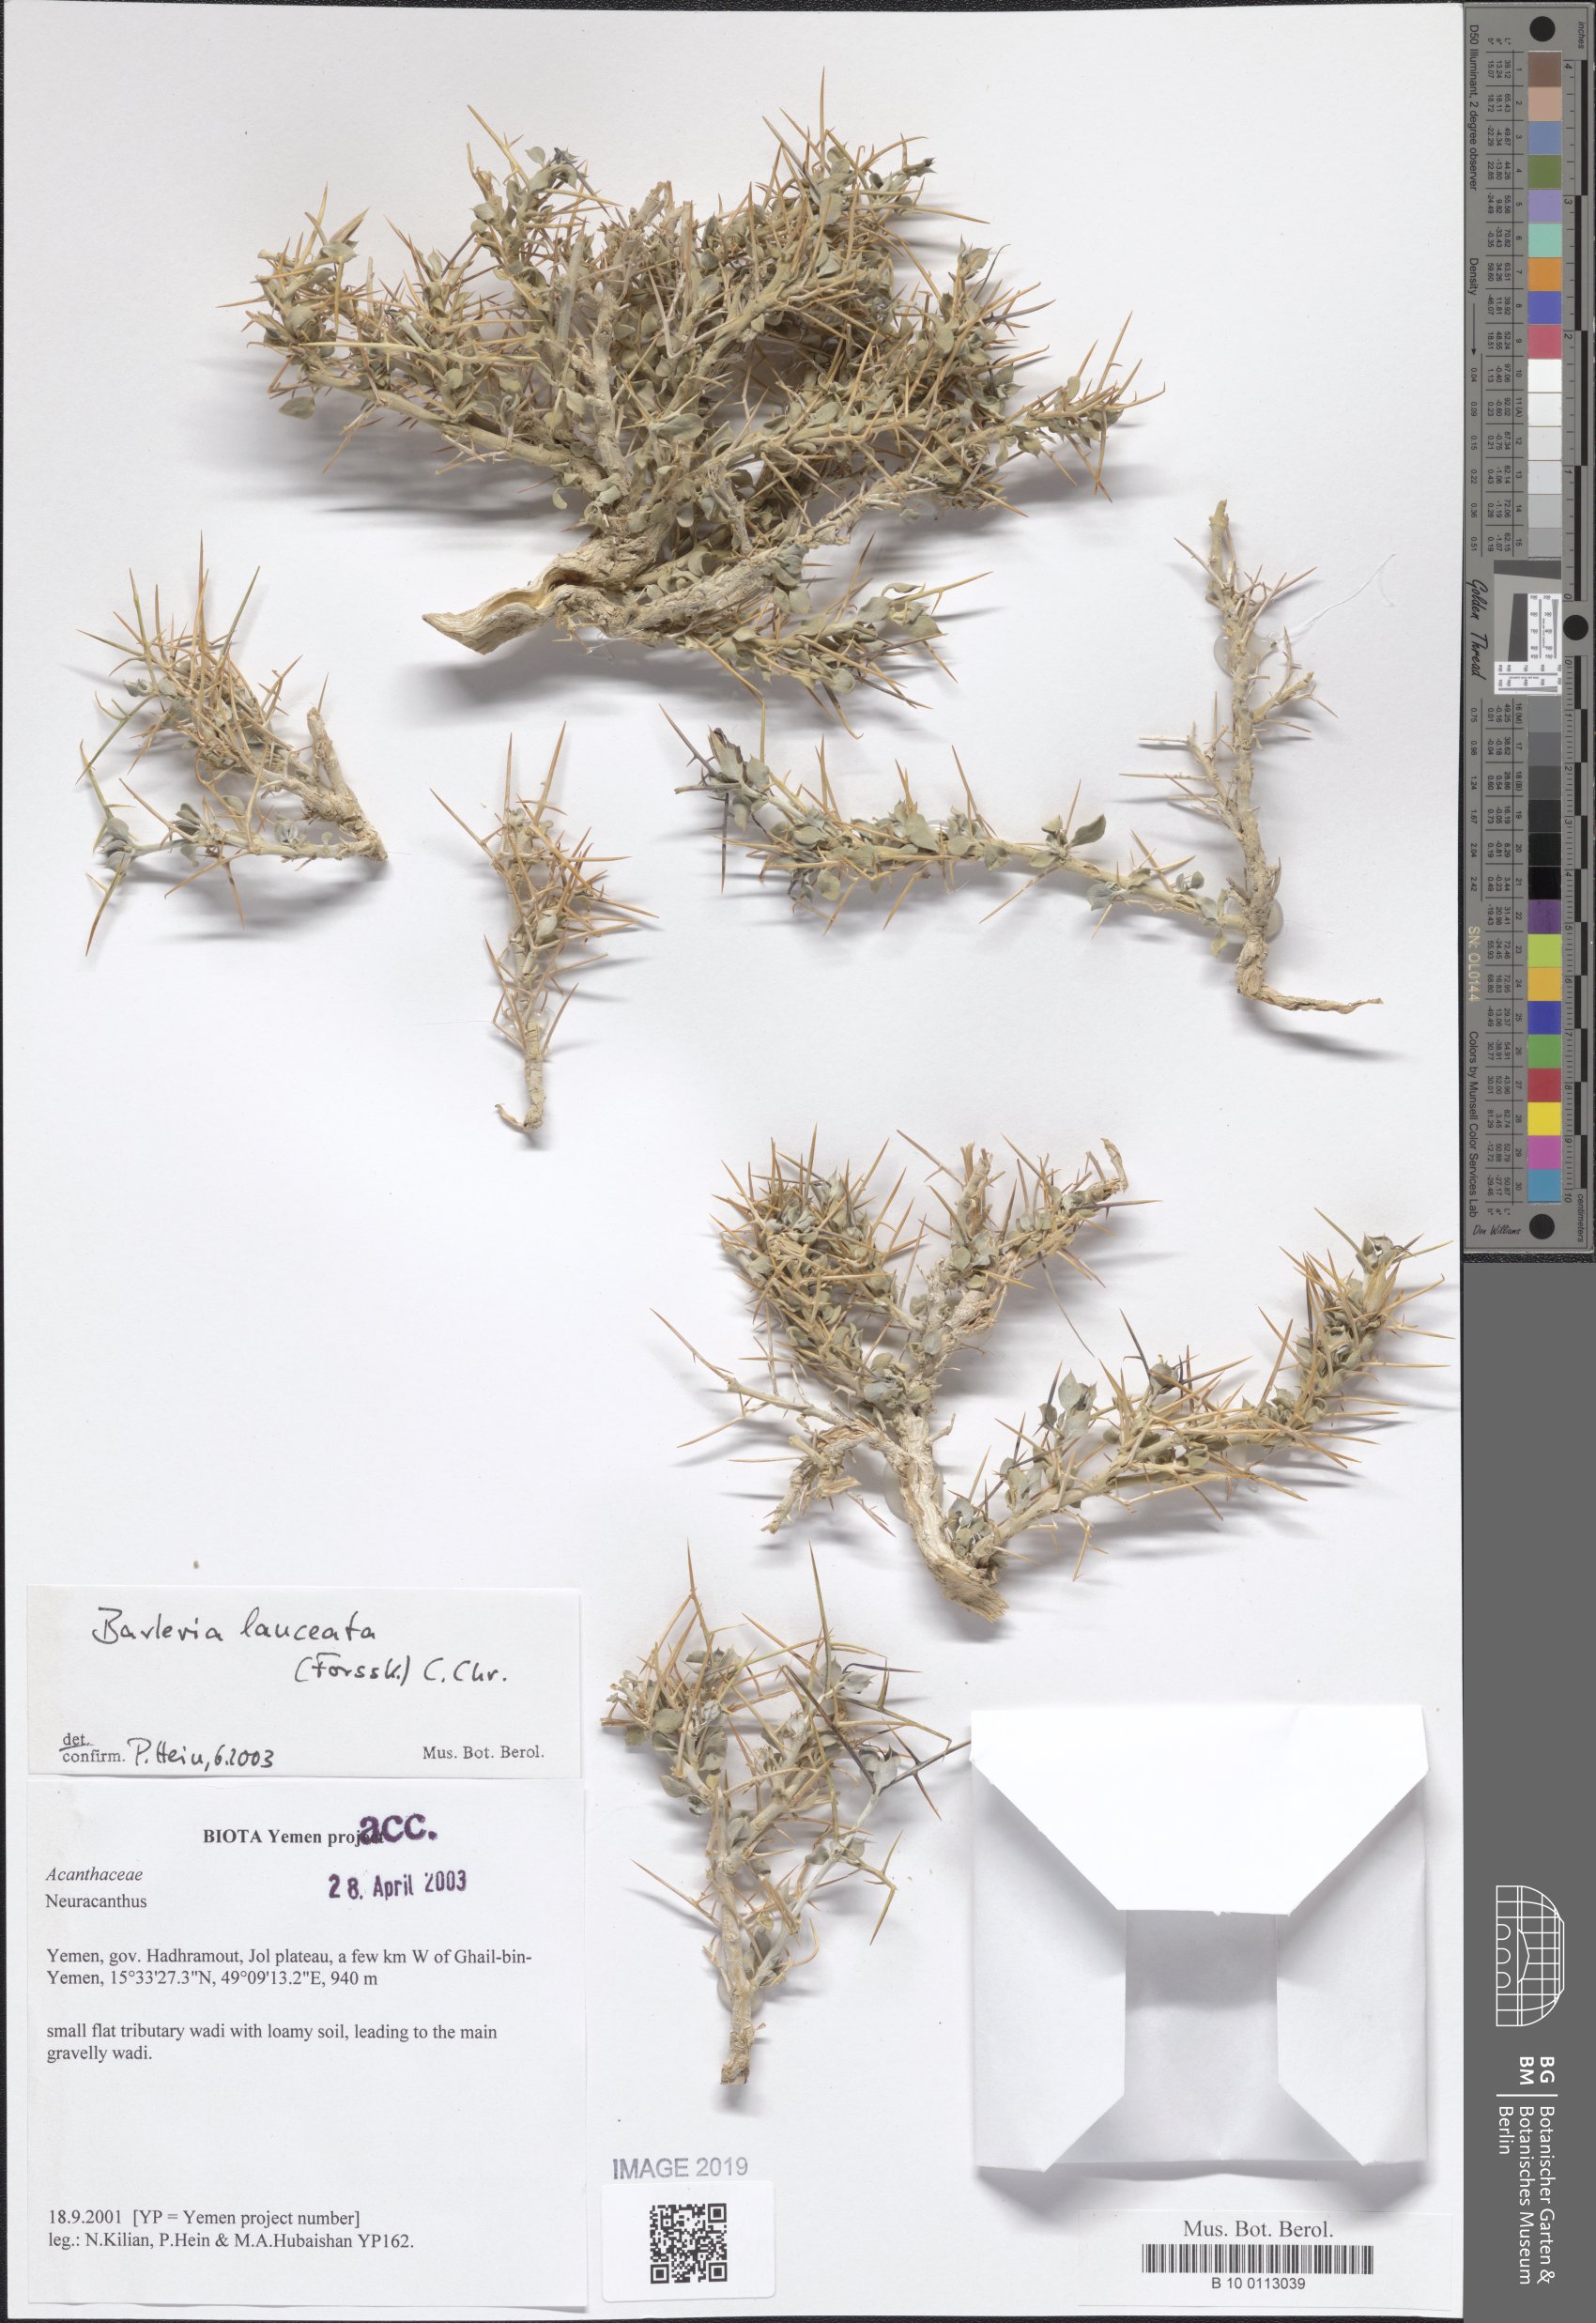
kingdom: Plantae
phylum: Tracheophyta
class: Magnoliopsida
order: Lamiales
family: Acanthaceae
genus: Barleria
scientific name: Barleria lanceata
